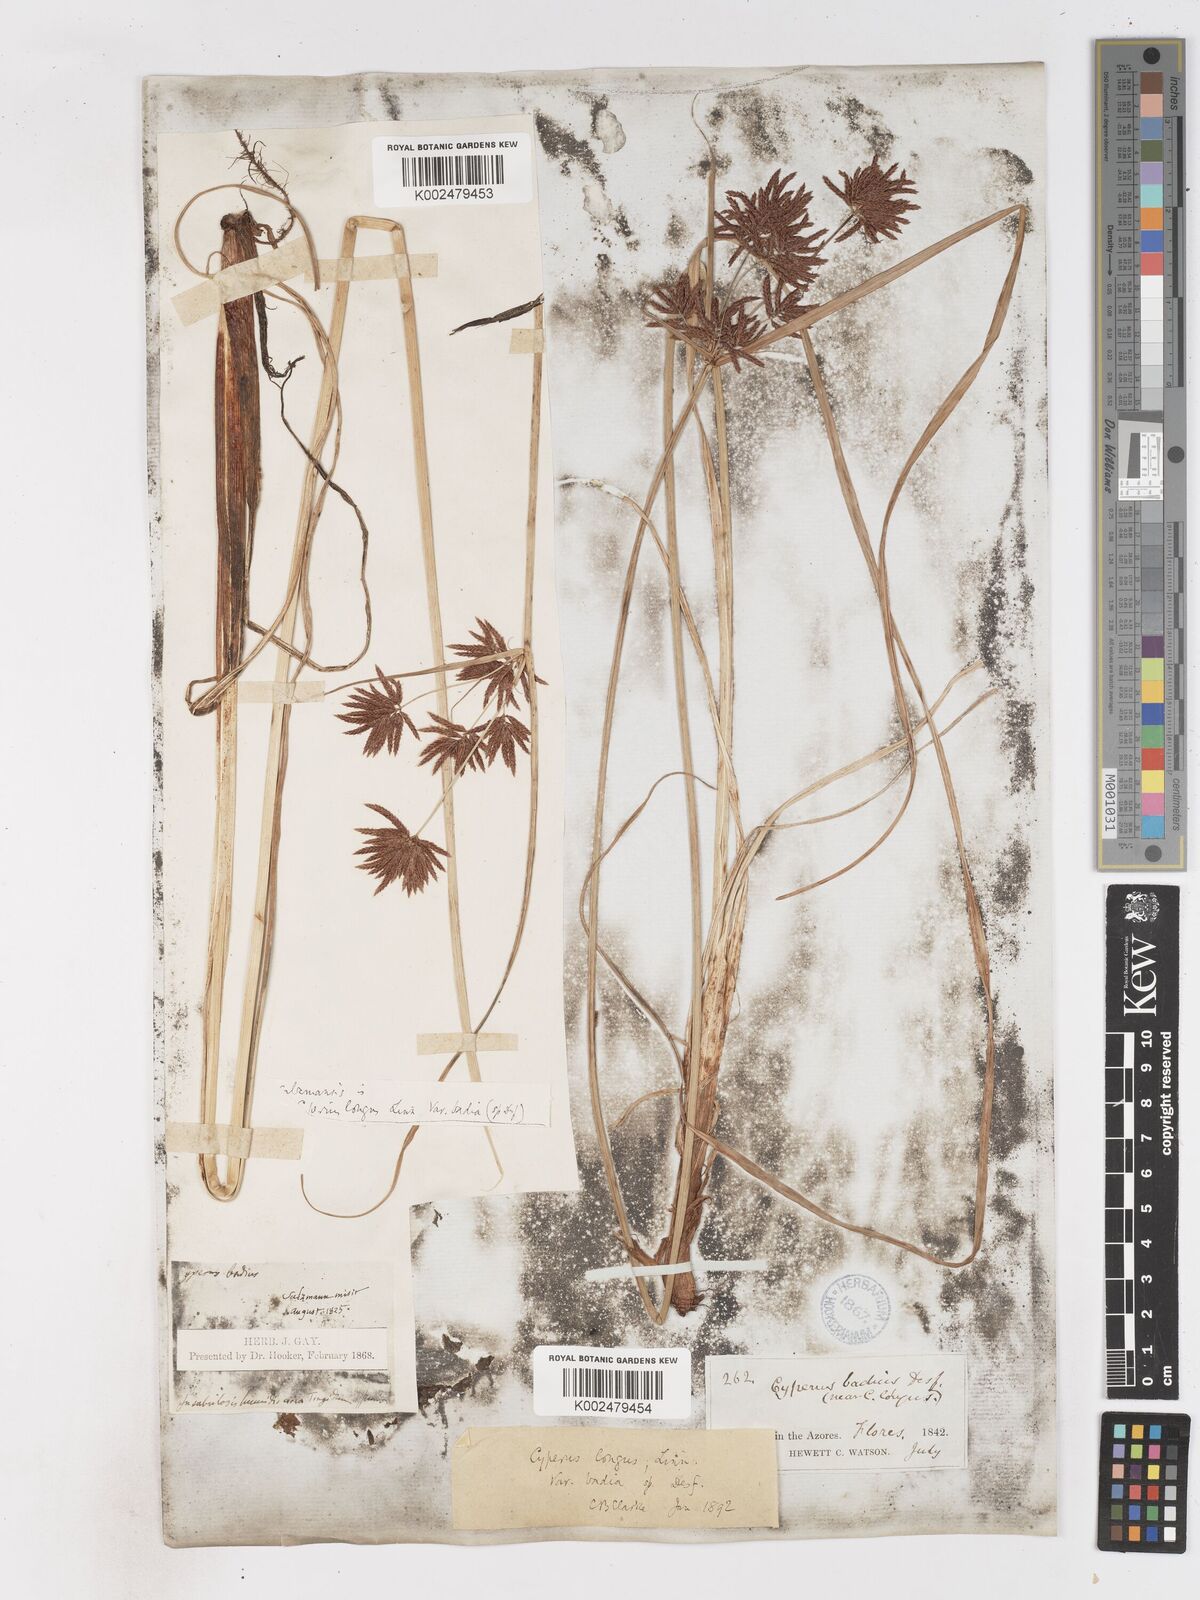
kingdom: Plantae
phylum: Tracheophyta
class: Liliopsida
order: Poales
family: Cyperaceae
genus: Cyperus
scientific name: Cyperus longus
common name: Galingale
